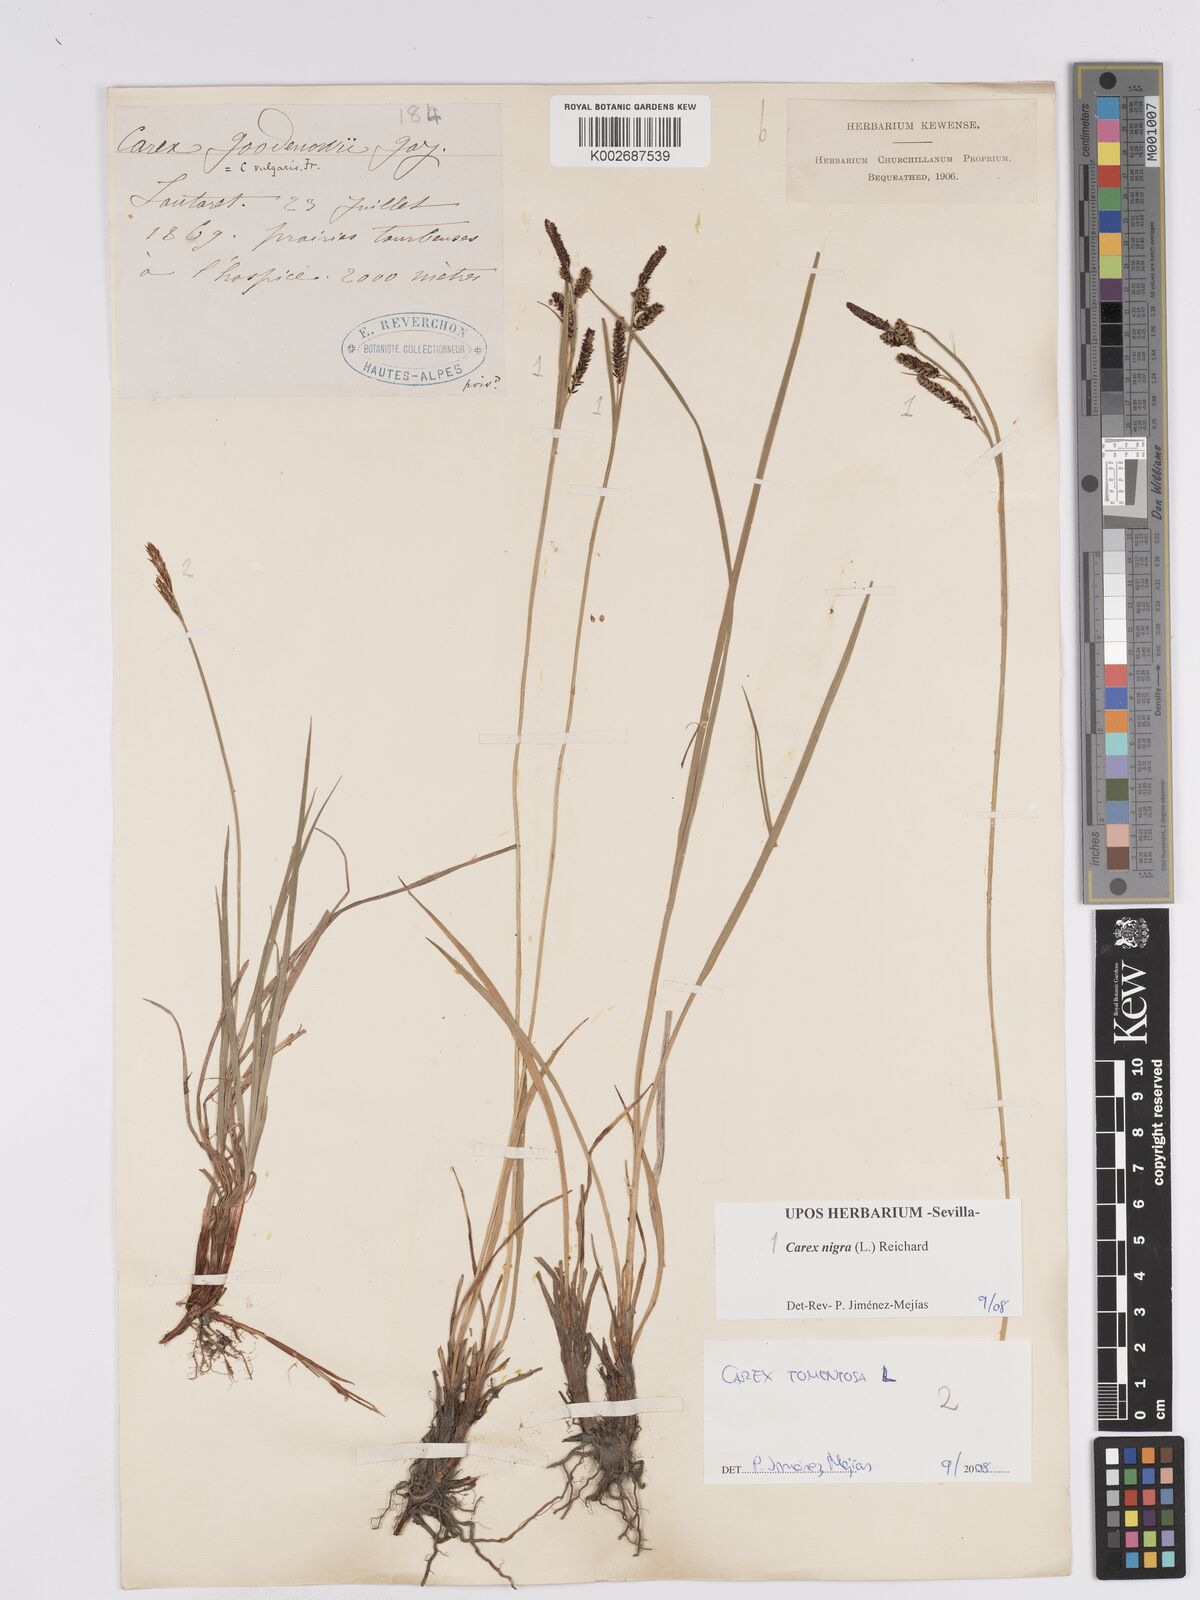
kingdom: Plantae
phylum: Tracheophyta
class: Liliopsida
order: Poales
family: Cyperaceae
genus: Carex
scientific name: Carex nigra
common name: Common sedge
